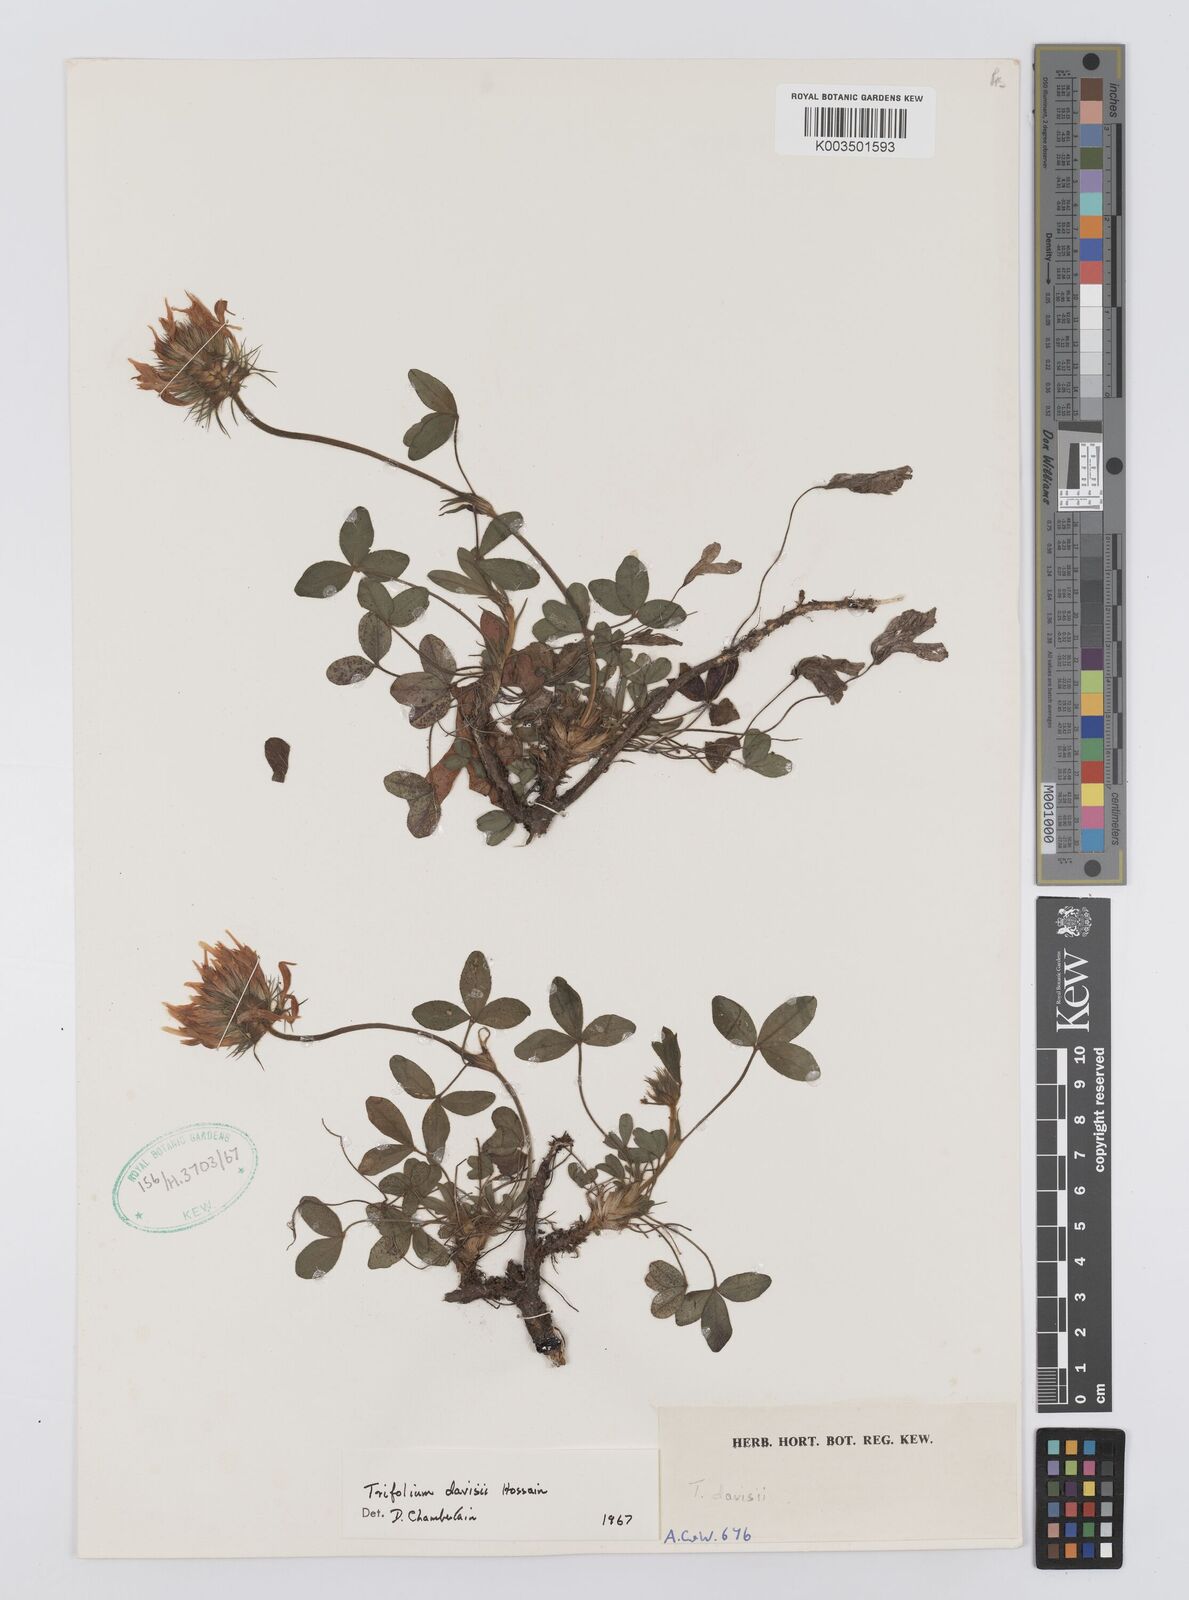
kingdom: Plantae
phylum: Tracheophyta
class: Magnoliopsida
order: Fabales
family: Fabaceae
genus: Trifolium
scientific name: Trifolium davisii
